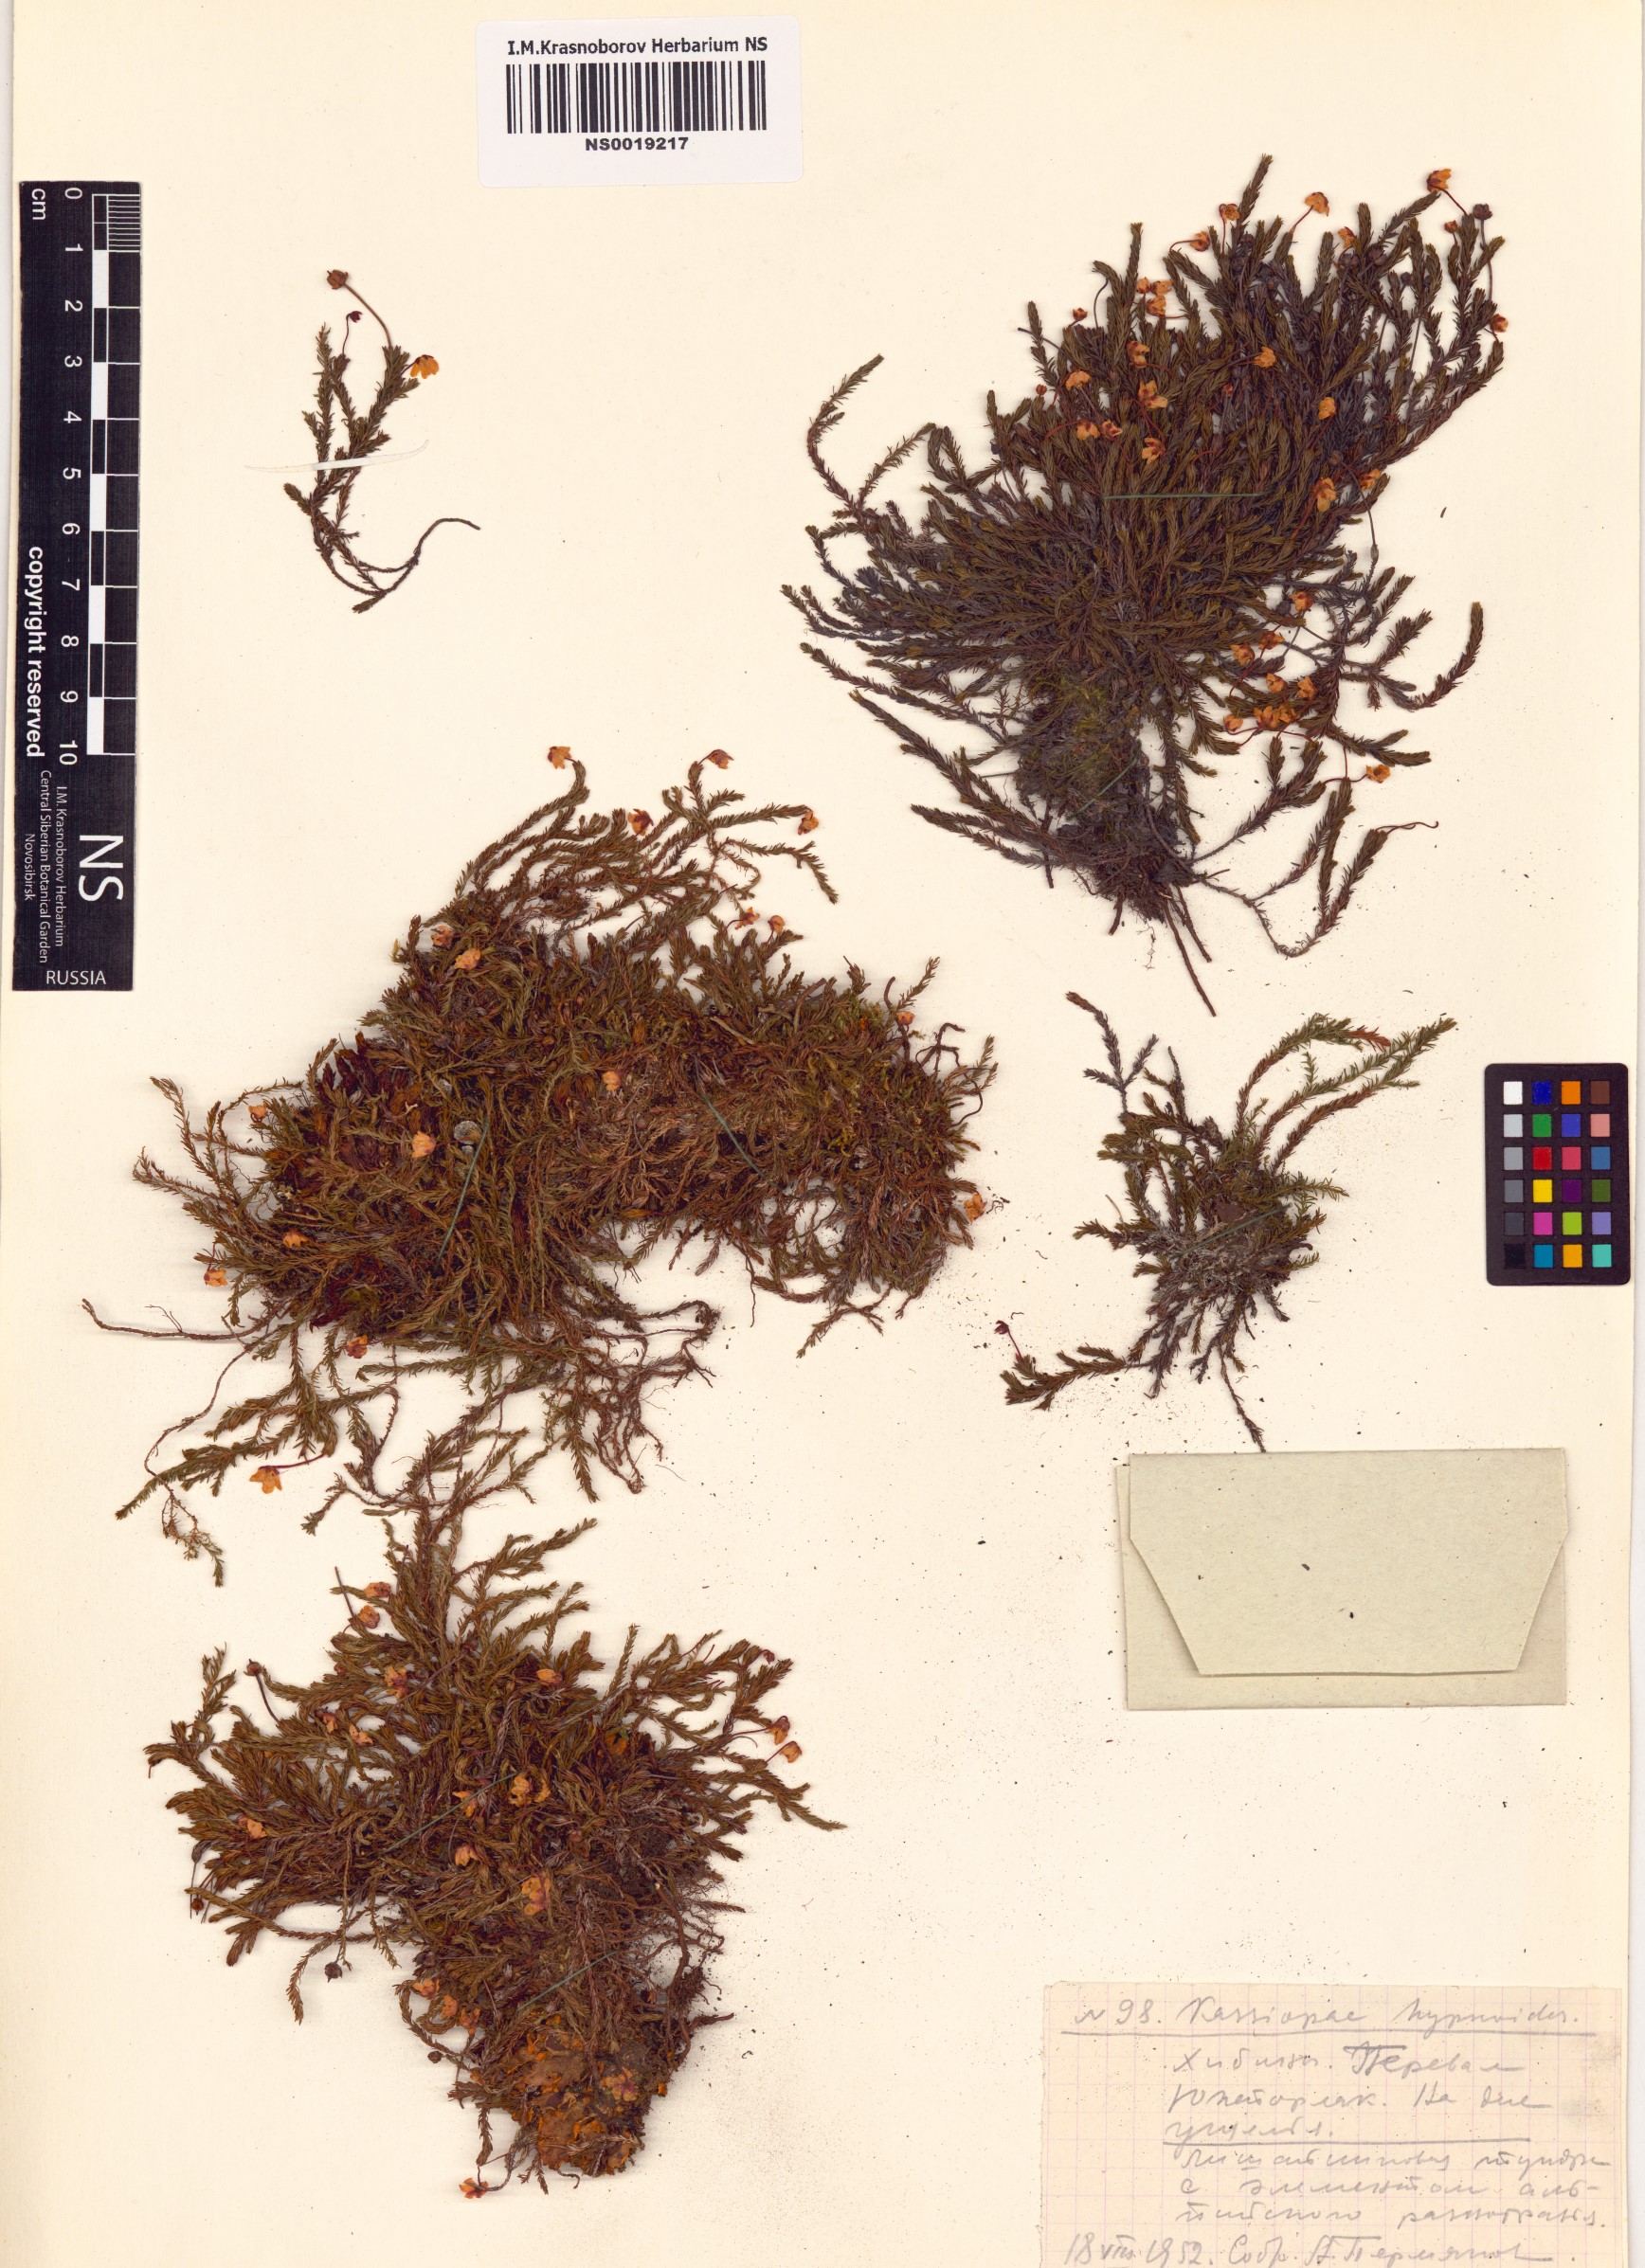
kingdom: Plantae
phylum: Tracheophyta
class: Magnoliopsida
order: Ericales
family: Ericaceae
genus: Harrimanella
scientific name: Harrimanella hypnoides
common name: Moss bell heather
